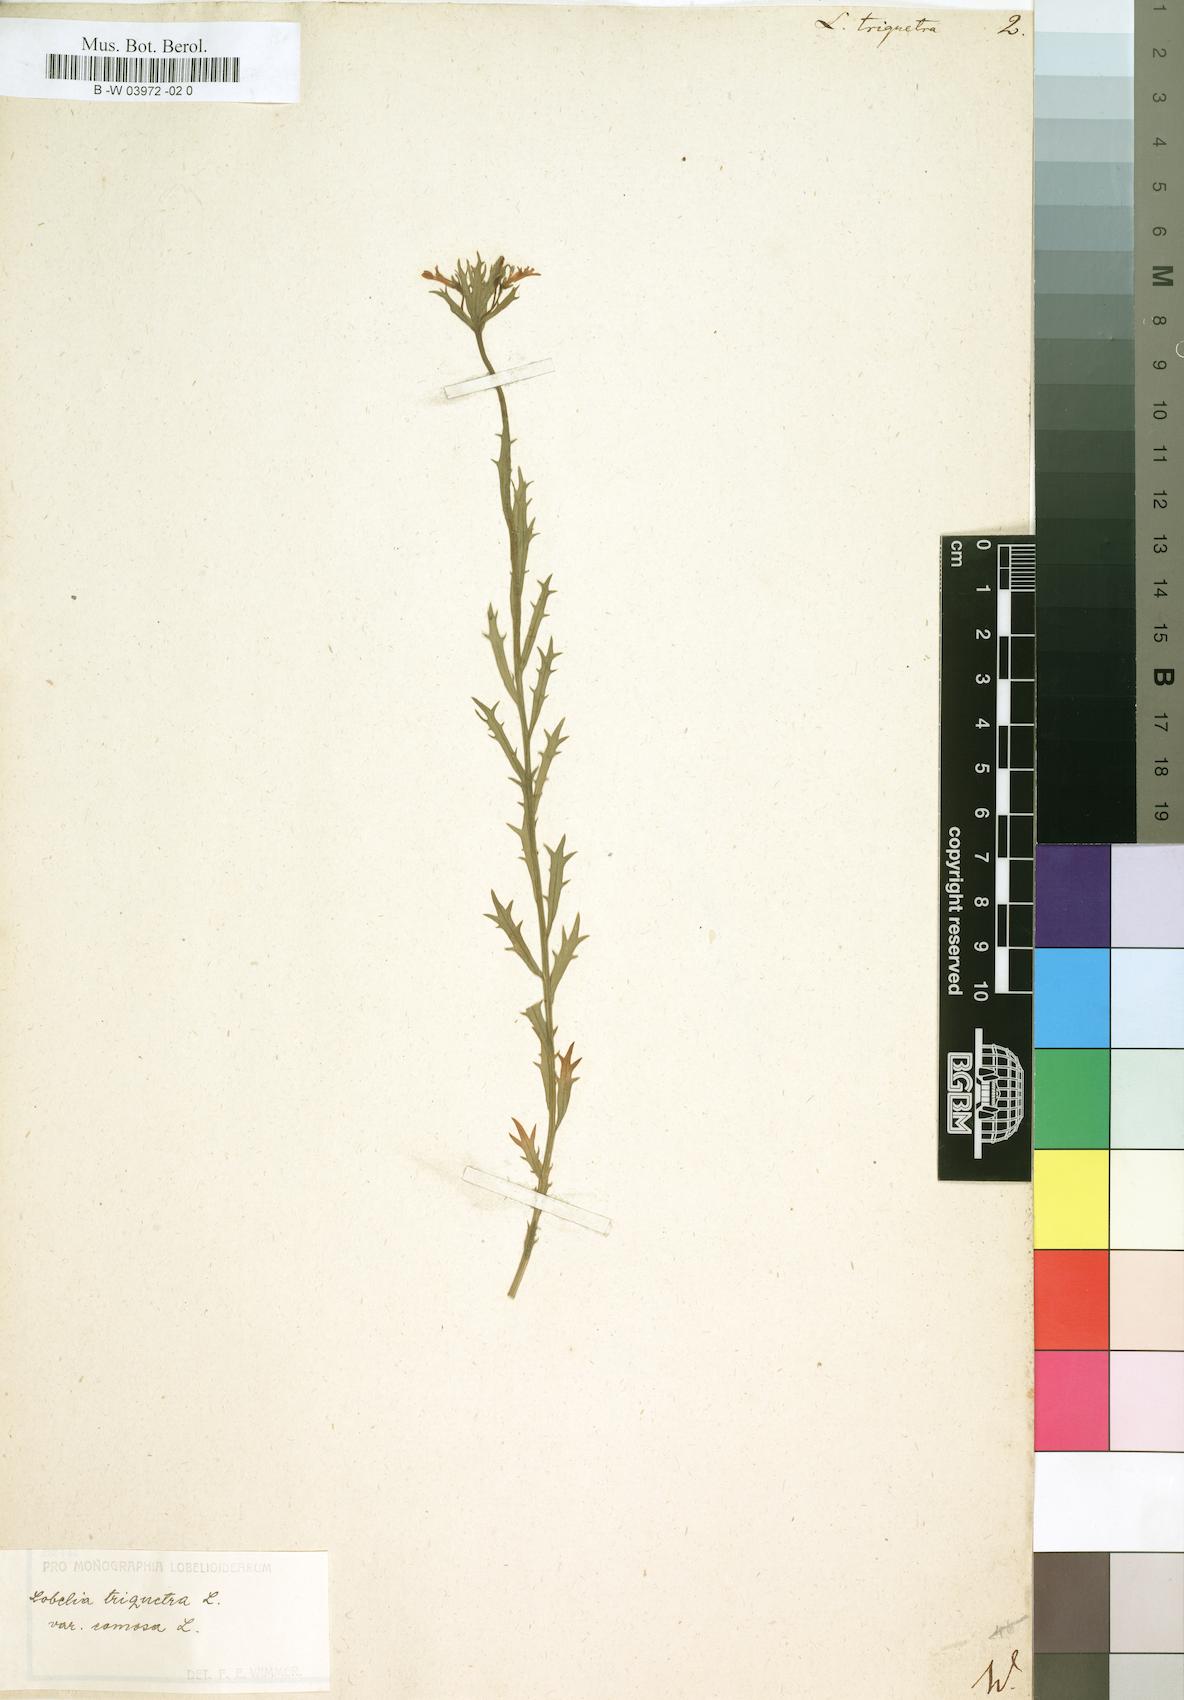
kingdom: Plantae
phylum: Tracheophyta
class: Magnoliopsida
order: Asterales
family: Campanulaceae
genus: Lobelia
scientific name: Lobelia triquetra
